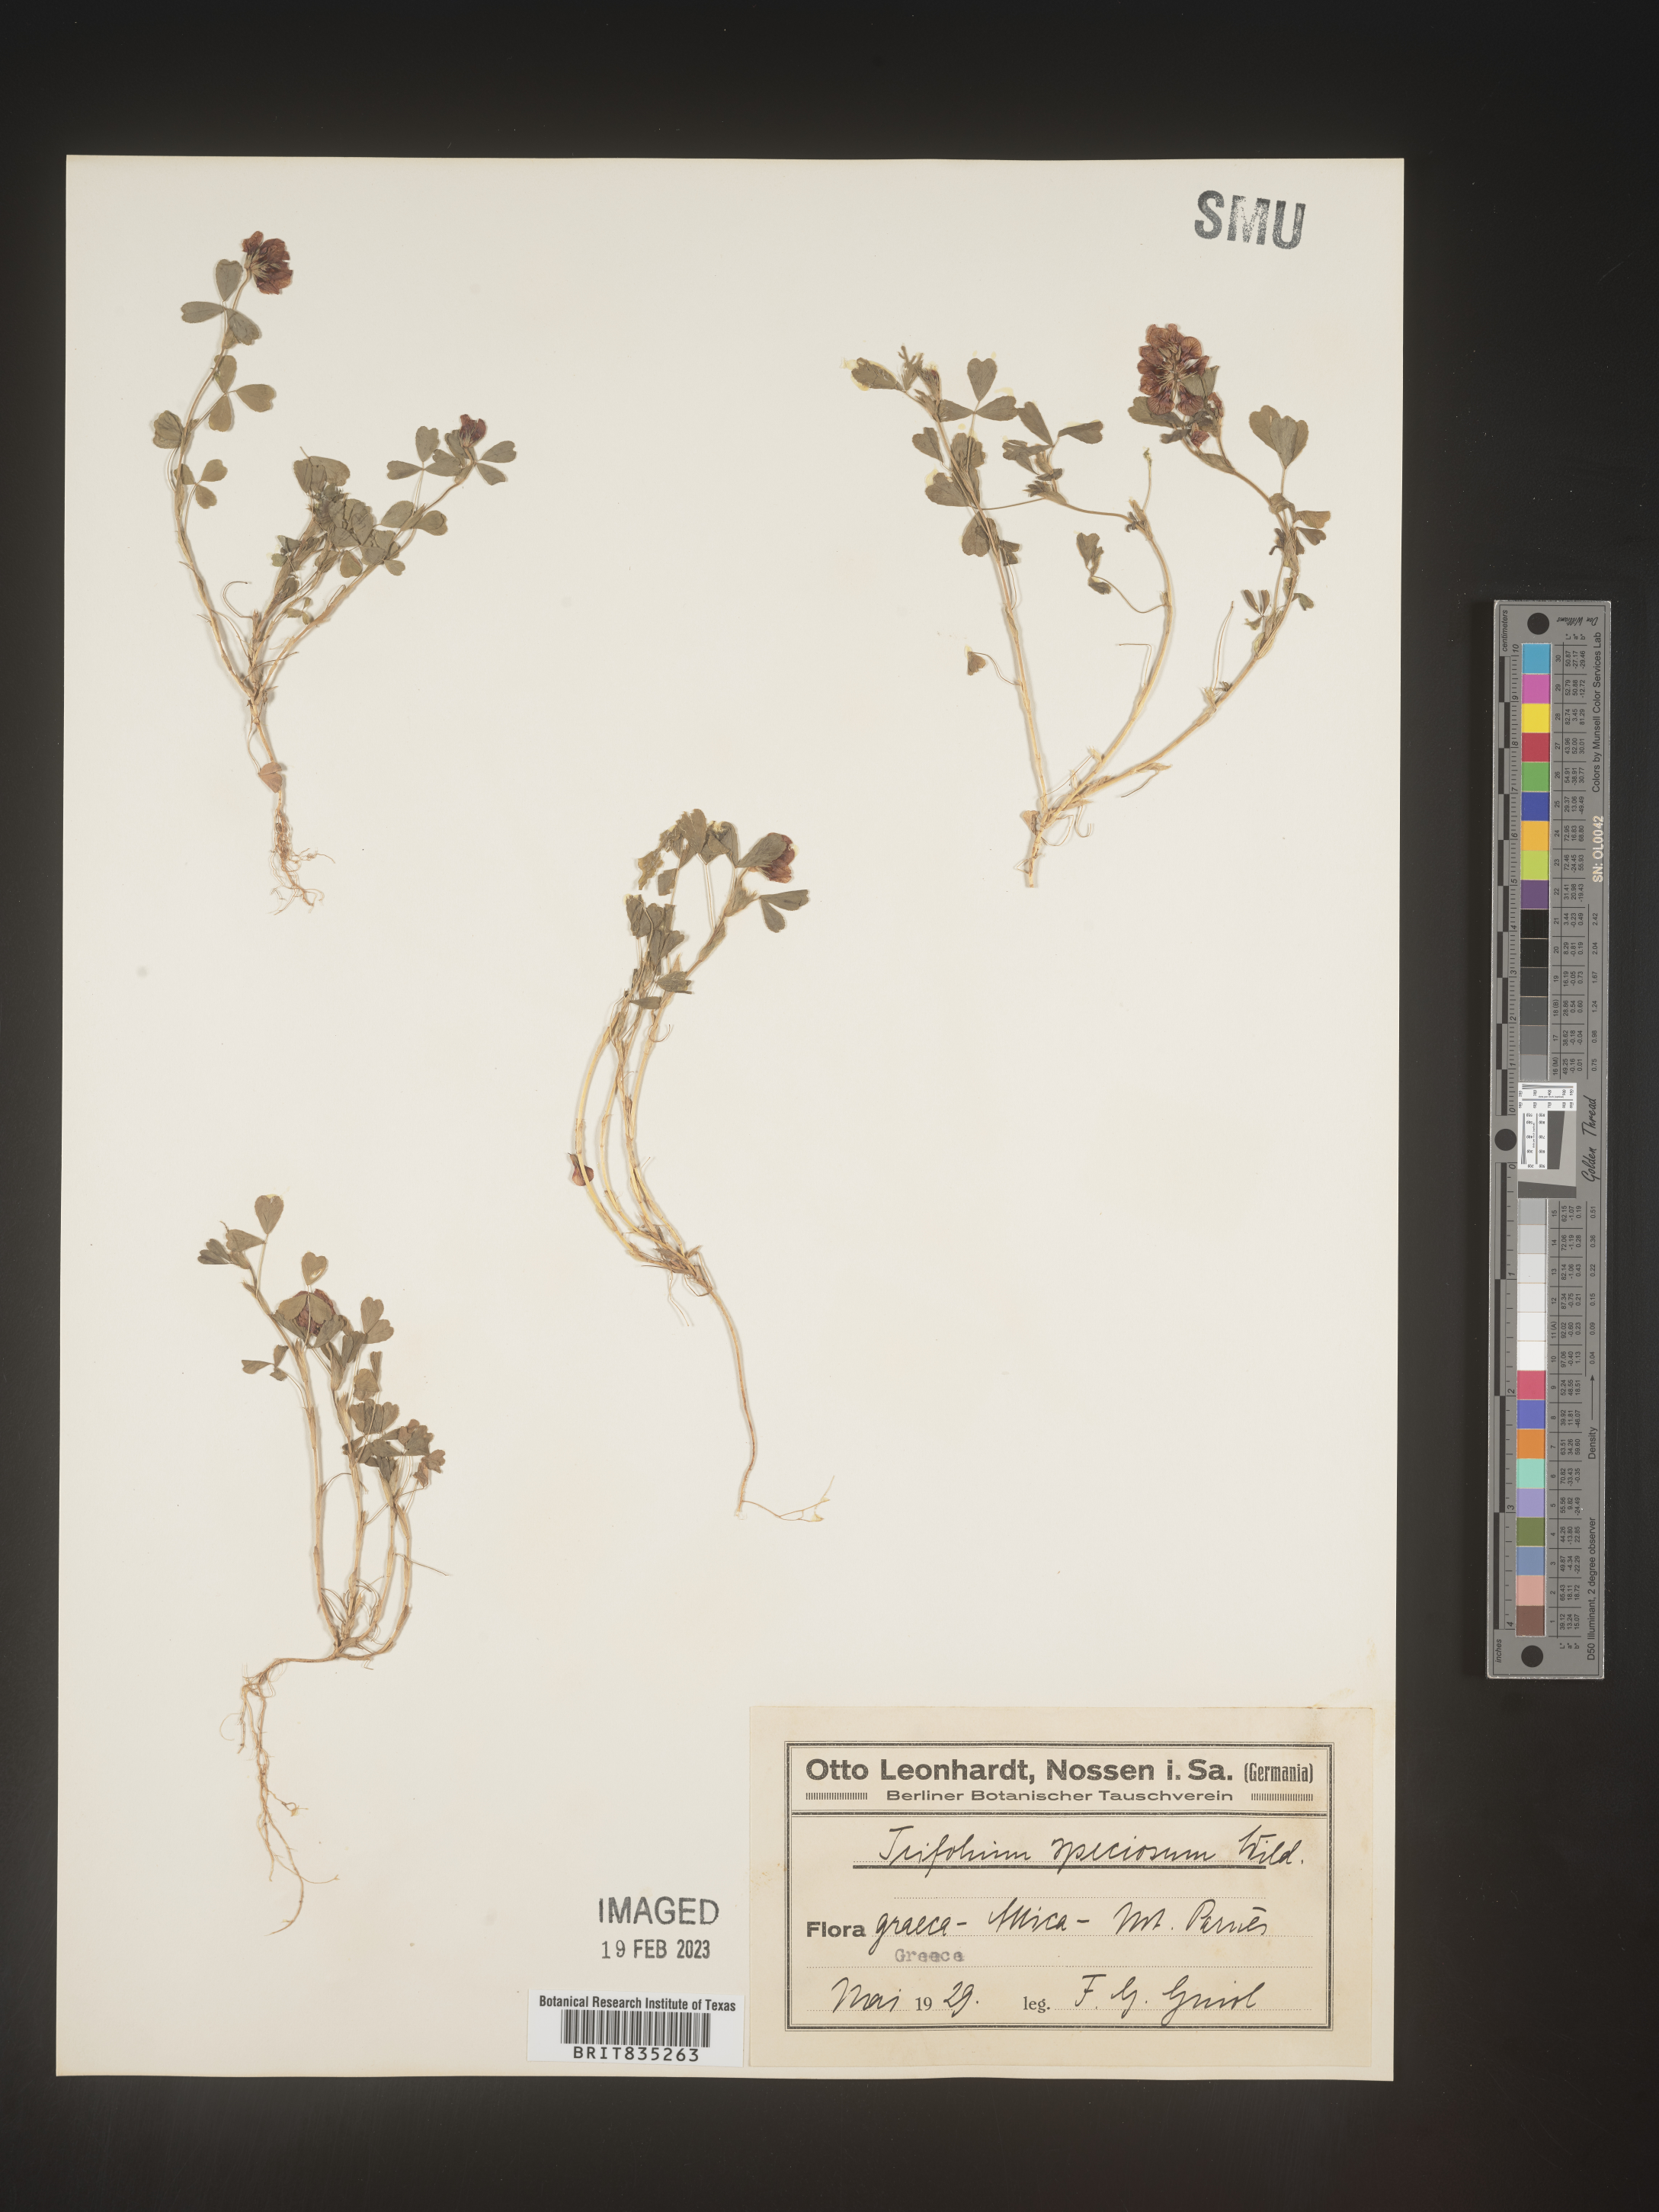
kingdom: Plantae
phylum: Tracheophyta
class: Magnoliopsida
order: Fabales
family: Fabaceae
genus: Trifolium
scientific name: Trifolium
